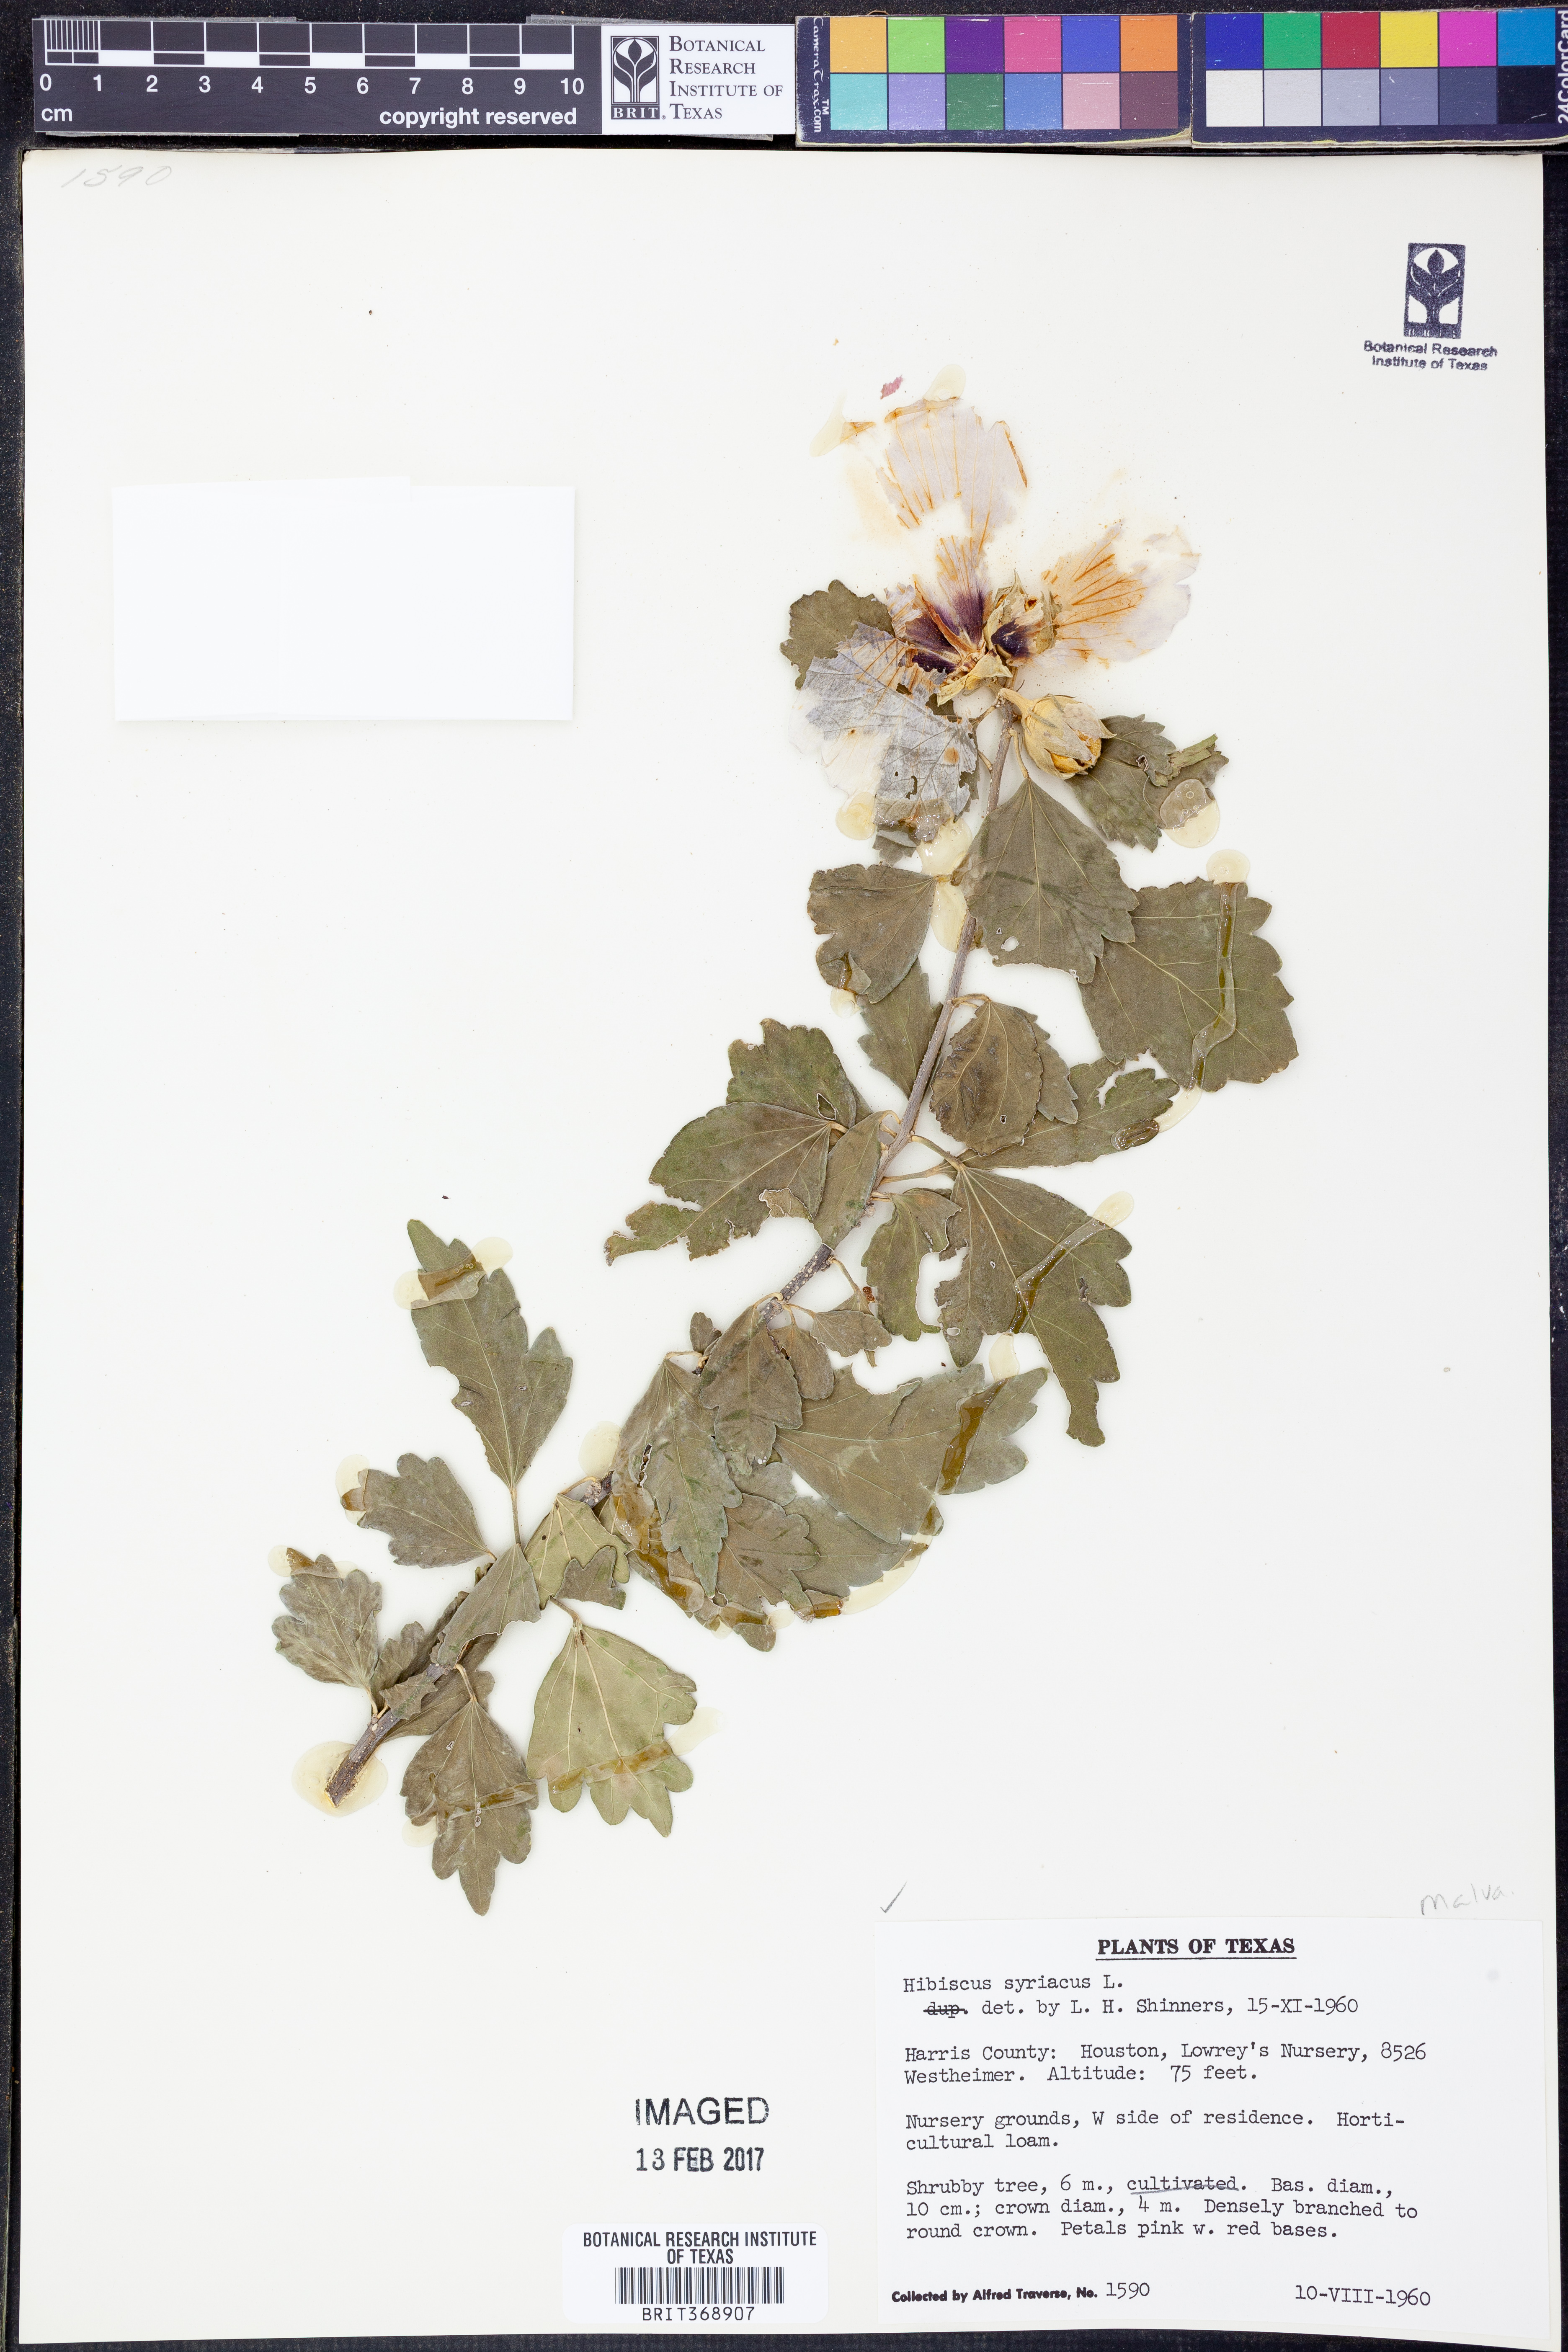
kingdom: Plantae
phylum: Tracheophyta
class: Magnoliopsida
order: Malvales
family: Malvaceae
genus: Hibiscus
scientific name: Hibiscus syriacus
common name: Syrian ketmia
